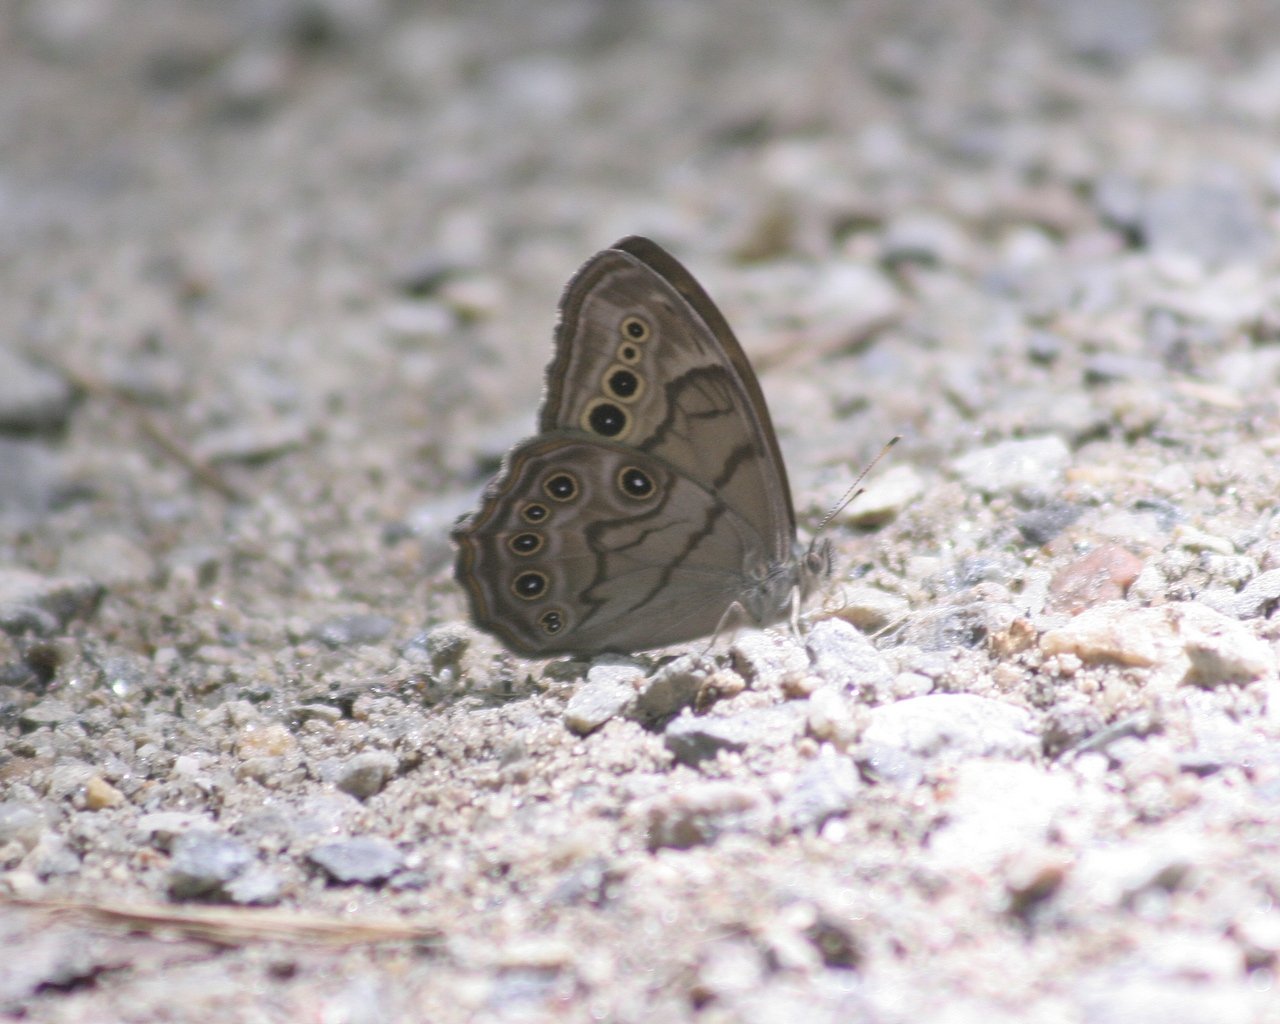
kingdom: Animalia
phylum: Arthropoda
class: Insecta
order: Lepidoptera
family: Nymphalidae
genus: Lethe
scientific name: Lethe anthedon
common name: Northern Pearly-Eye
